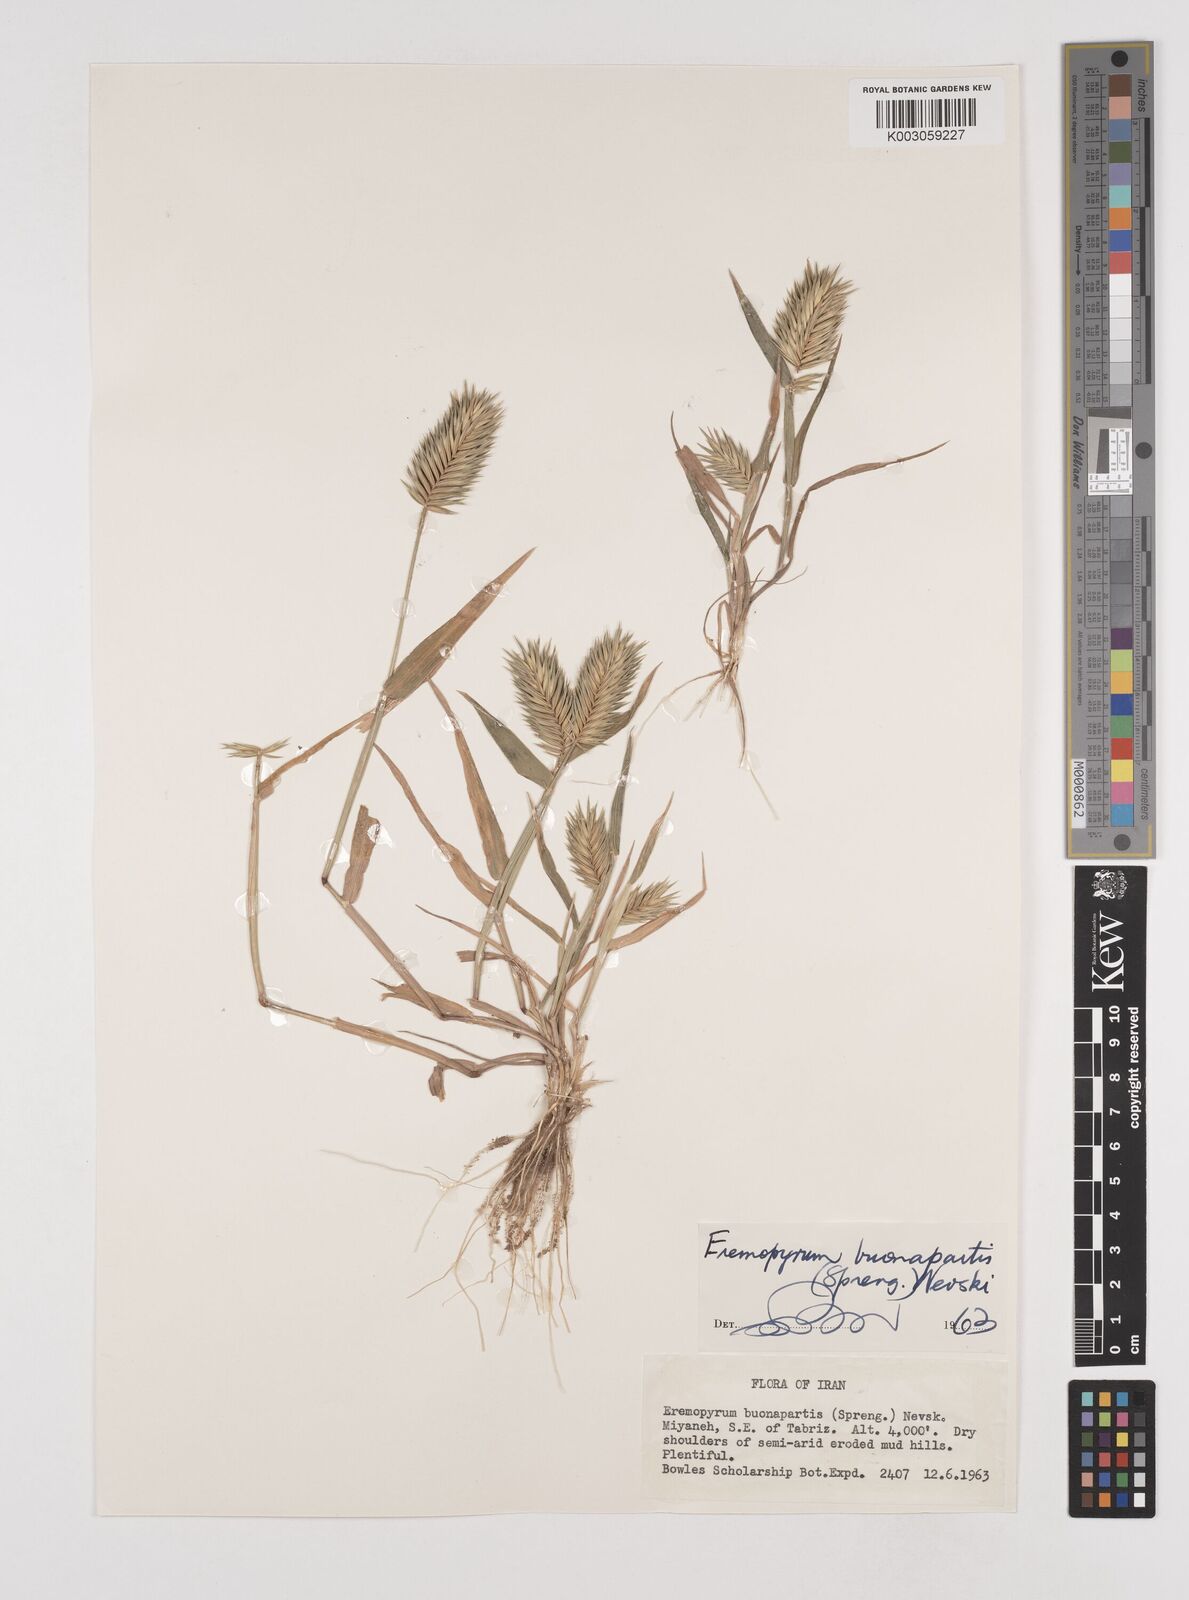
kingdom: Plantae
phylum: Tracheophyta
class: Liliopsida
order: Poales
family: Poaceae
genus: Eremopyrum
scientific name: Eremopyrum bonaepartis
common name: Tapertip false wheatgrass
